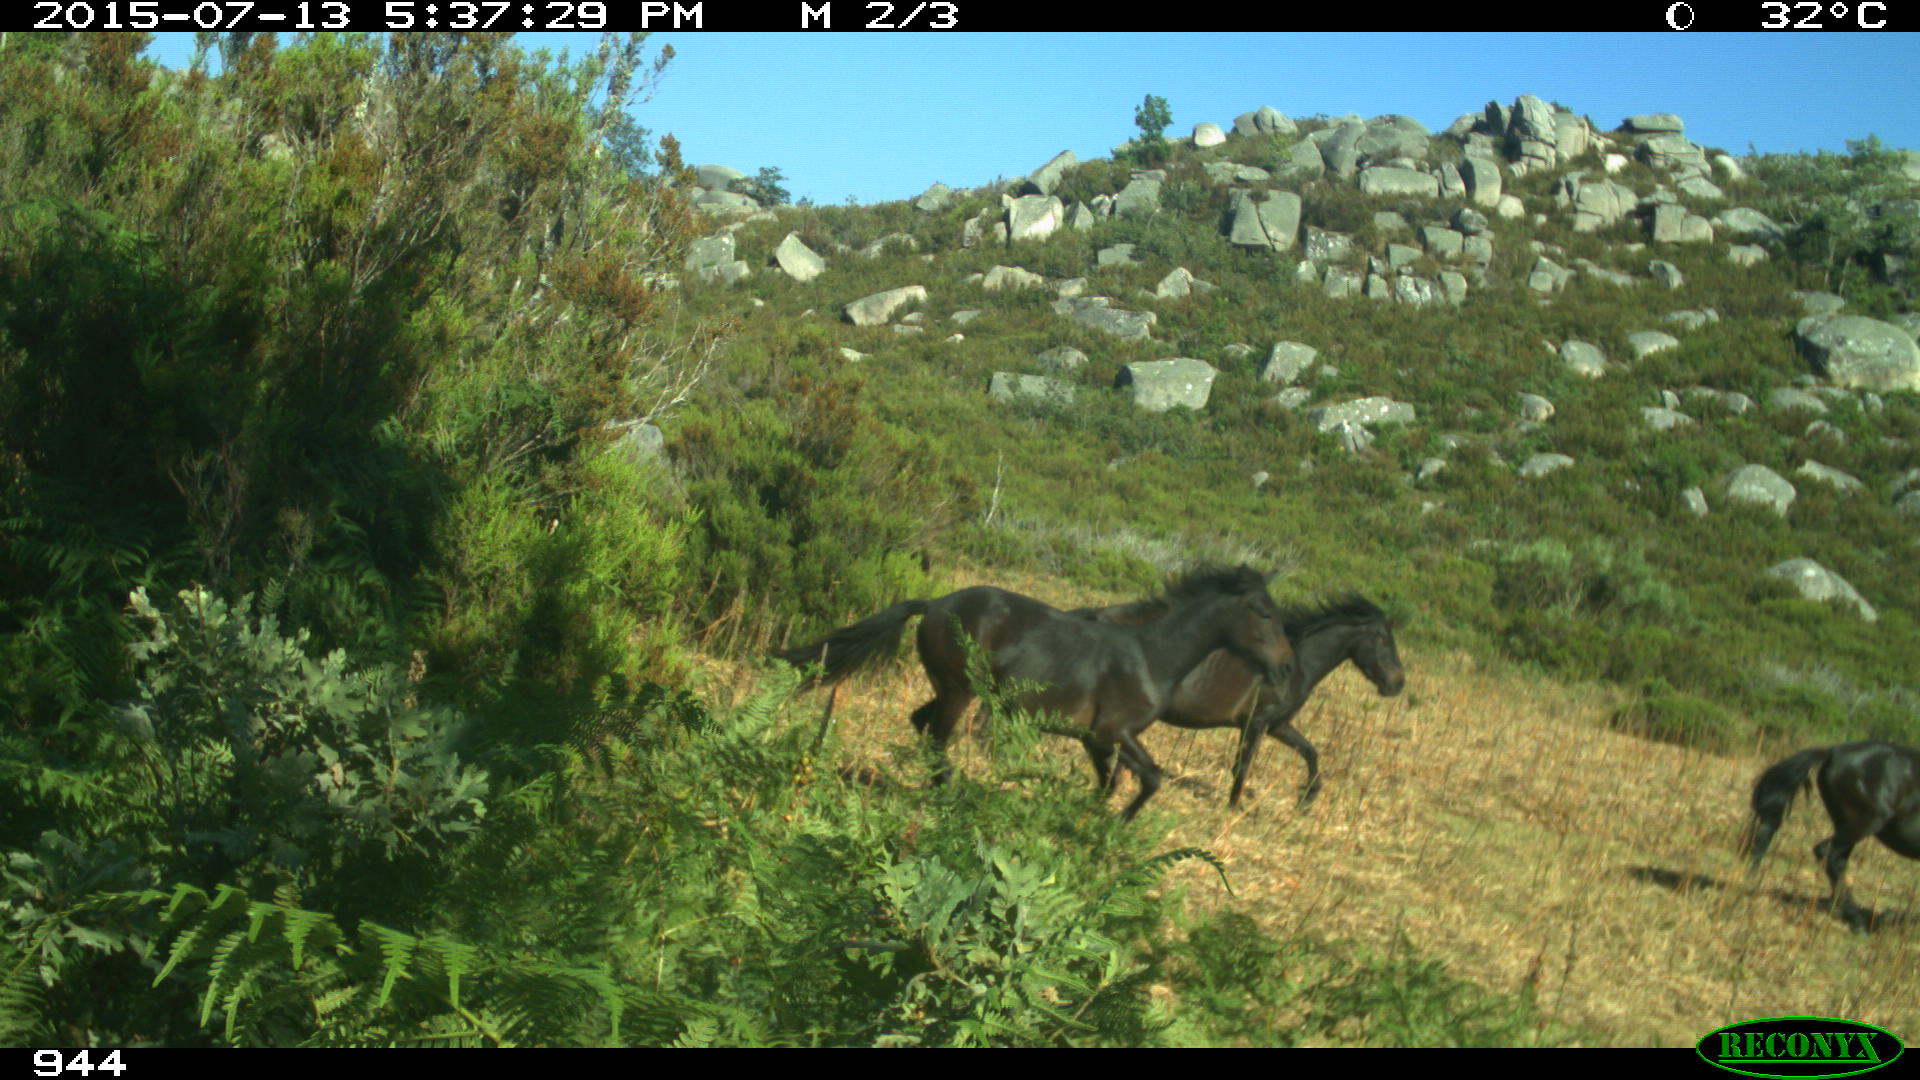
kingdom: Animalia
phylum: Chordata
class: Mammalia
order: Perissodactyla
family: Equidae
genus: Equus
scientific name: Equus caballus
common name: Horse
